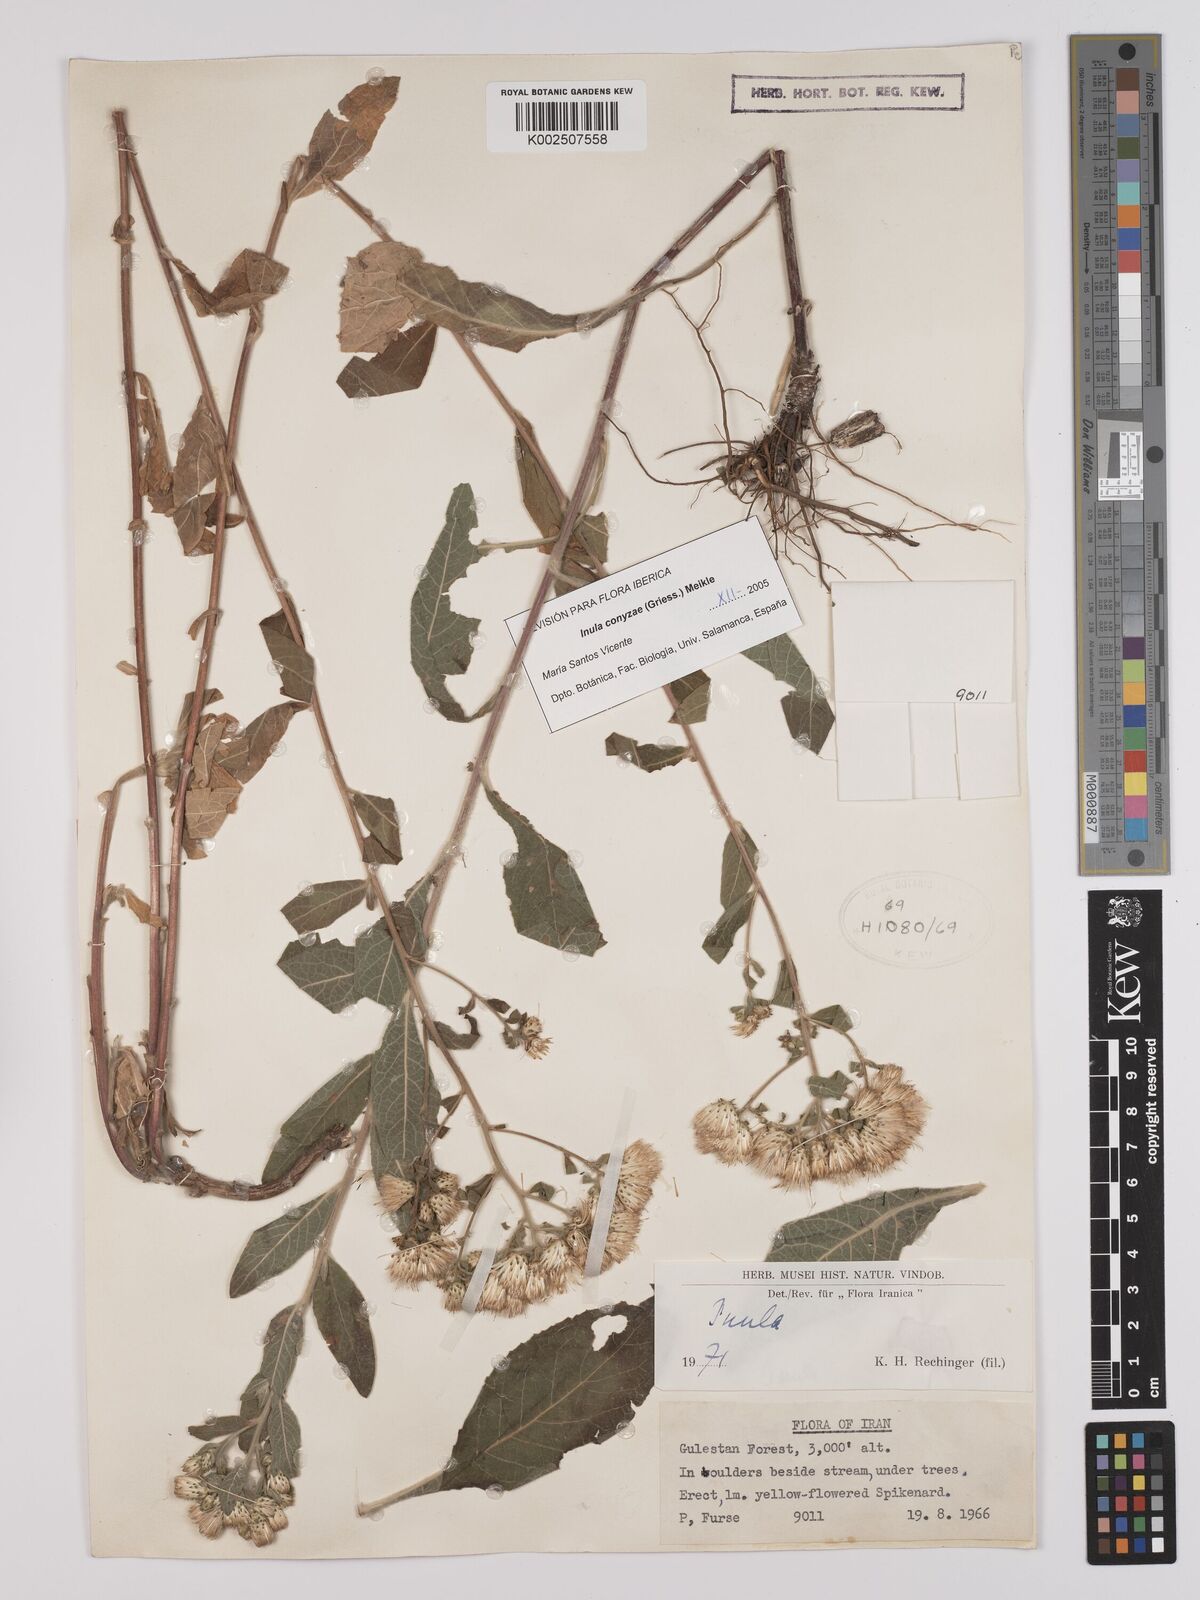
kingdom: Plantae
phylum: Tracheophyta
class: Magnoliopsida
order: Asterales
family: Asteraceae
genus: Pentanema
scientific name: Pentanema squarrosum
